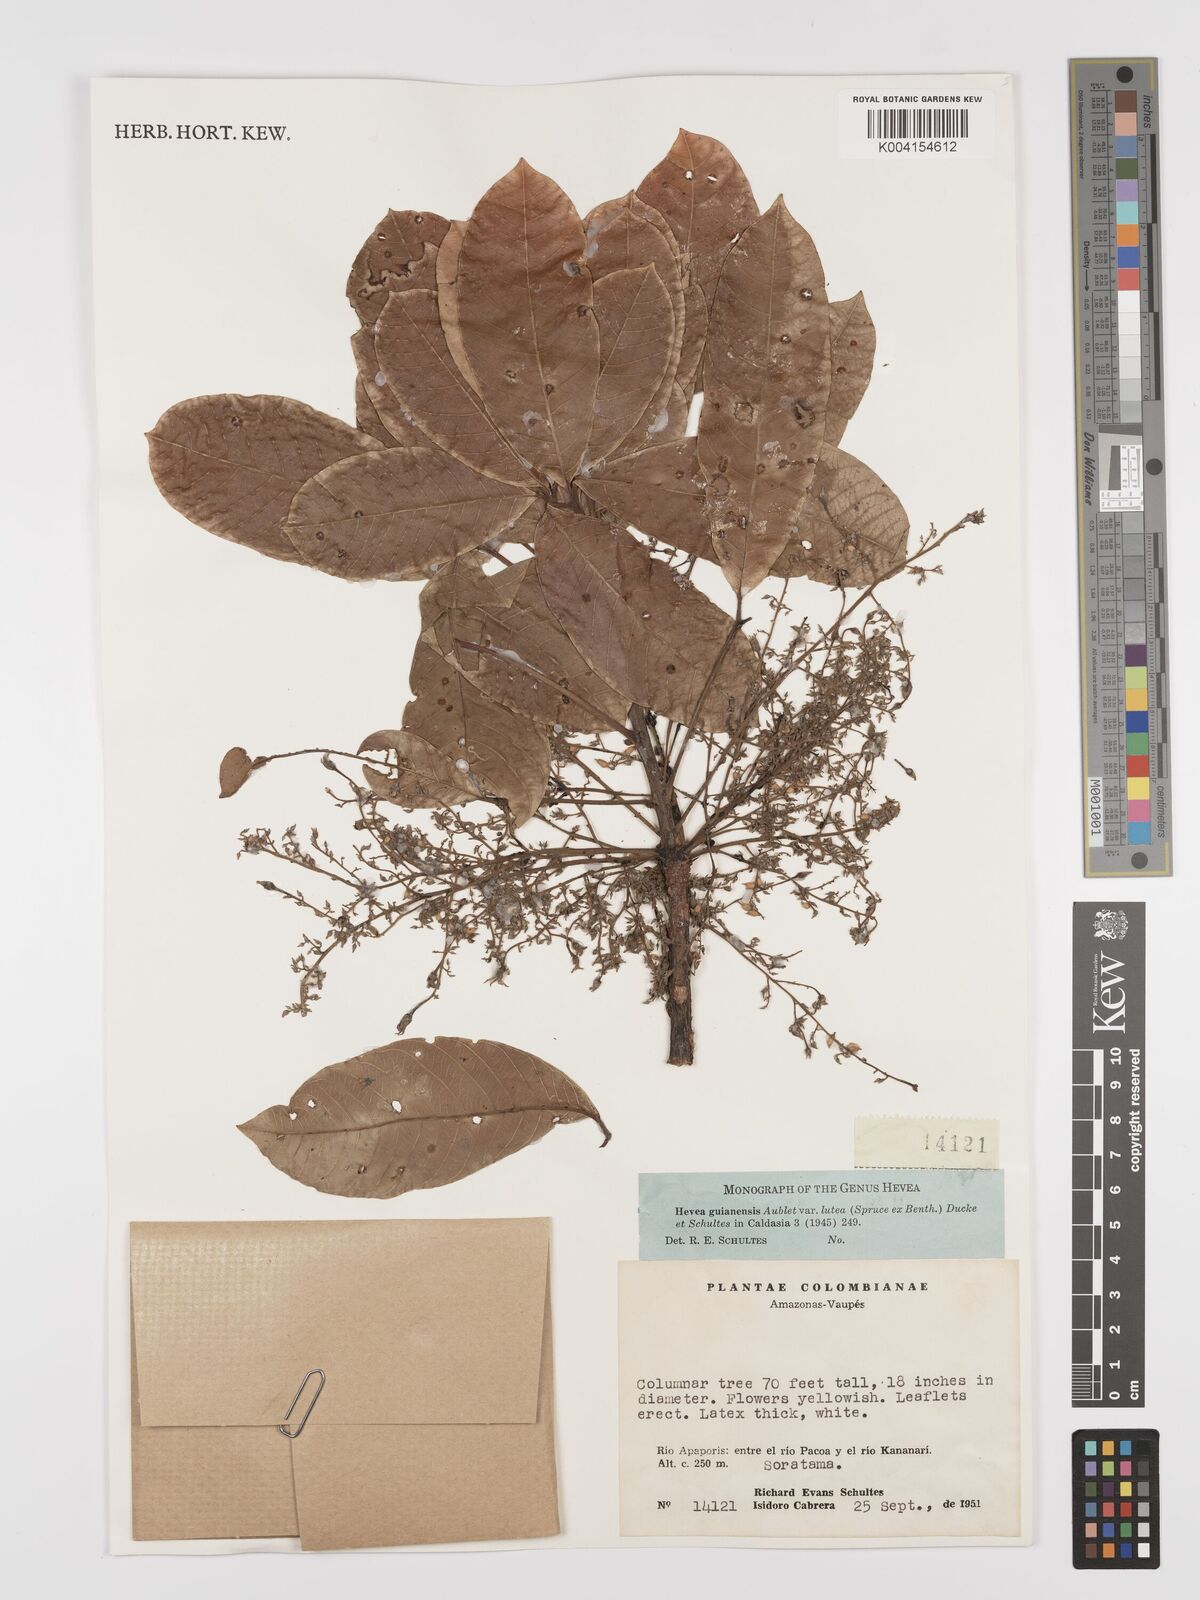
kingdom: Plantae
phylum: Tracheophyta
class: Magnoliopsida
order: Malpighiales
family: Euphorbiaceae
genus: Hevea
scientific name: Hevea guianensis
